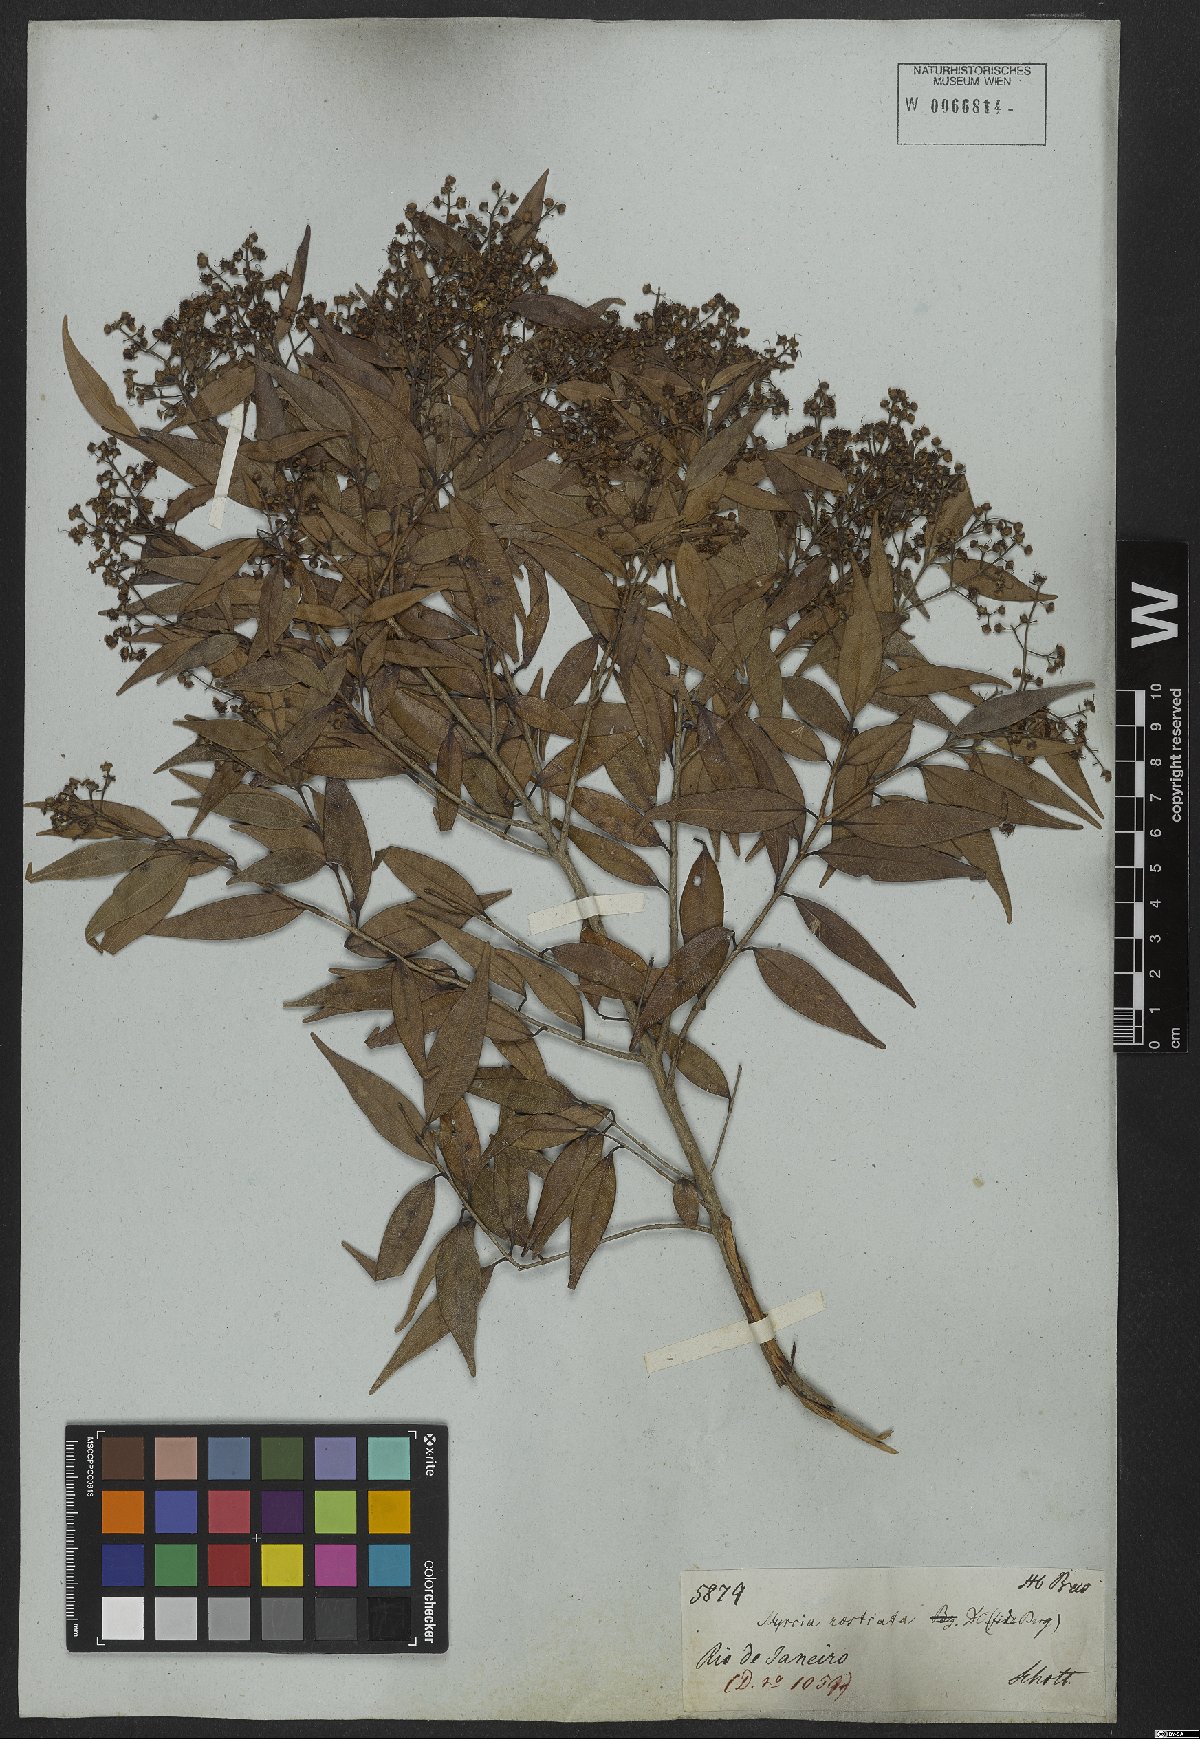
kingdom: Plantae
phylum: Tracheophyta
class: Magnoliopsida
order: Myrtales
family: Myrtaceae
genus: Myrcia
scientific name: Myrcia splendens
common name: Surinam cherry
